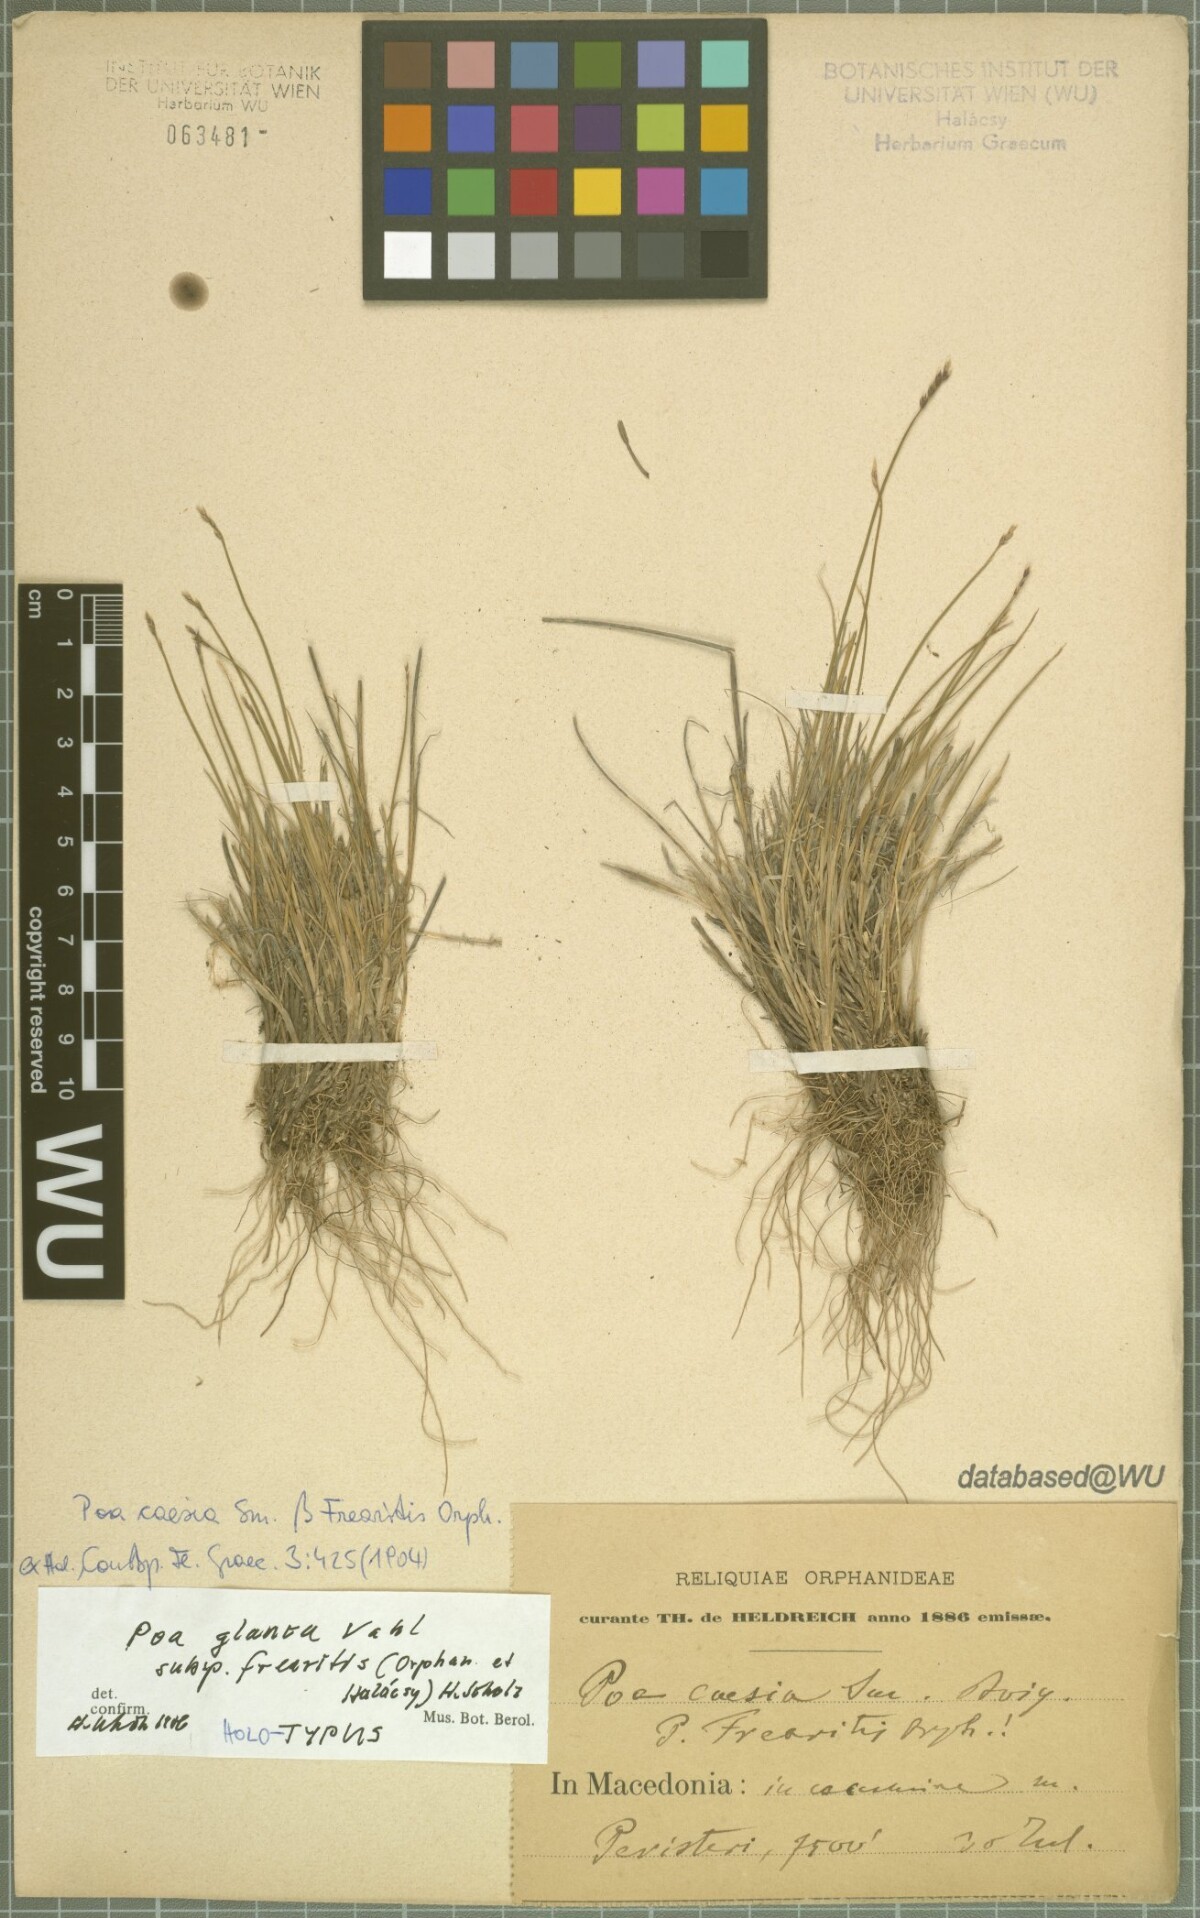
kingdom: Plantae
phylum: Tracheophyta
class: Liliopsida
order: Poales
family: Poaceae
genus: Poa
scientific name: Poa glauca
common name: Glaucous bluegrass
